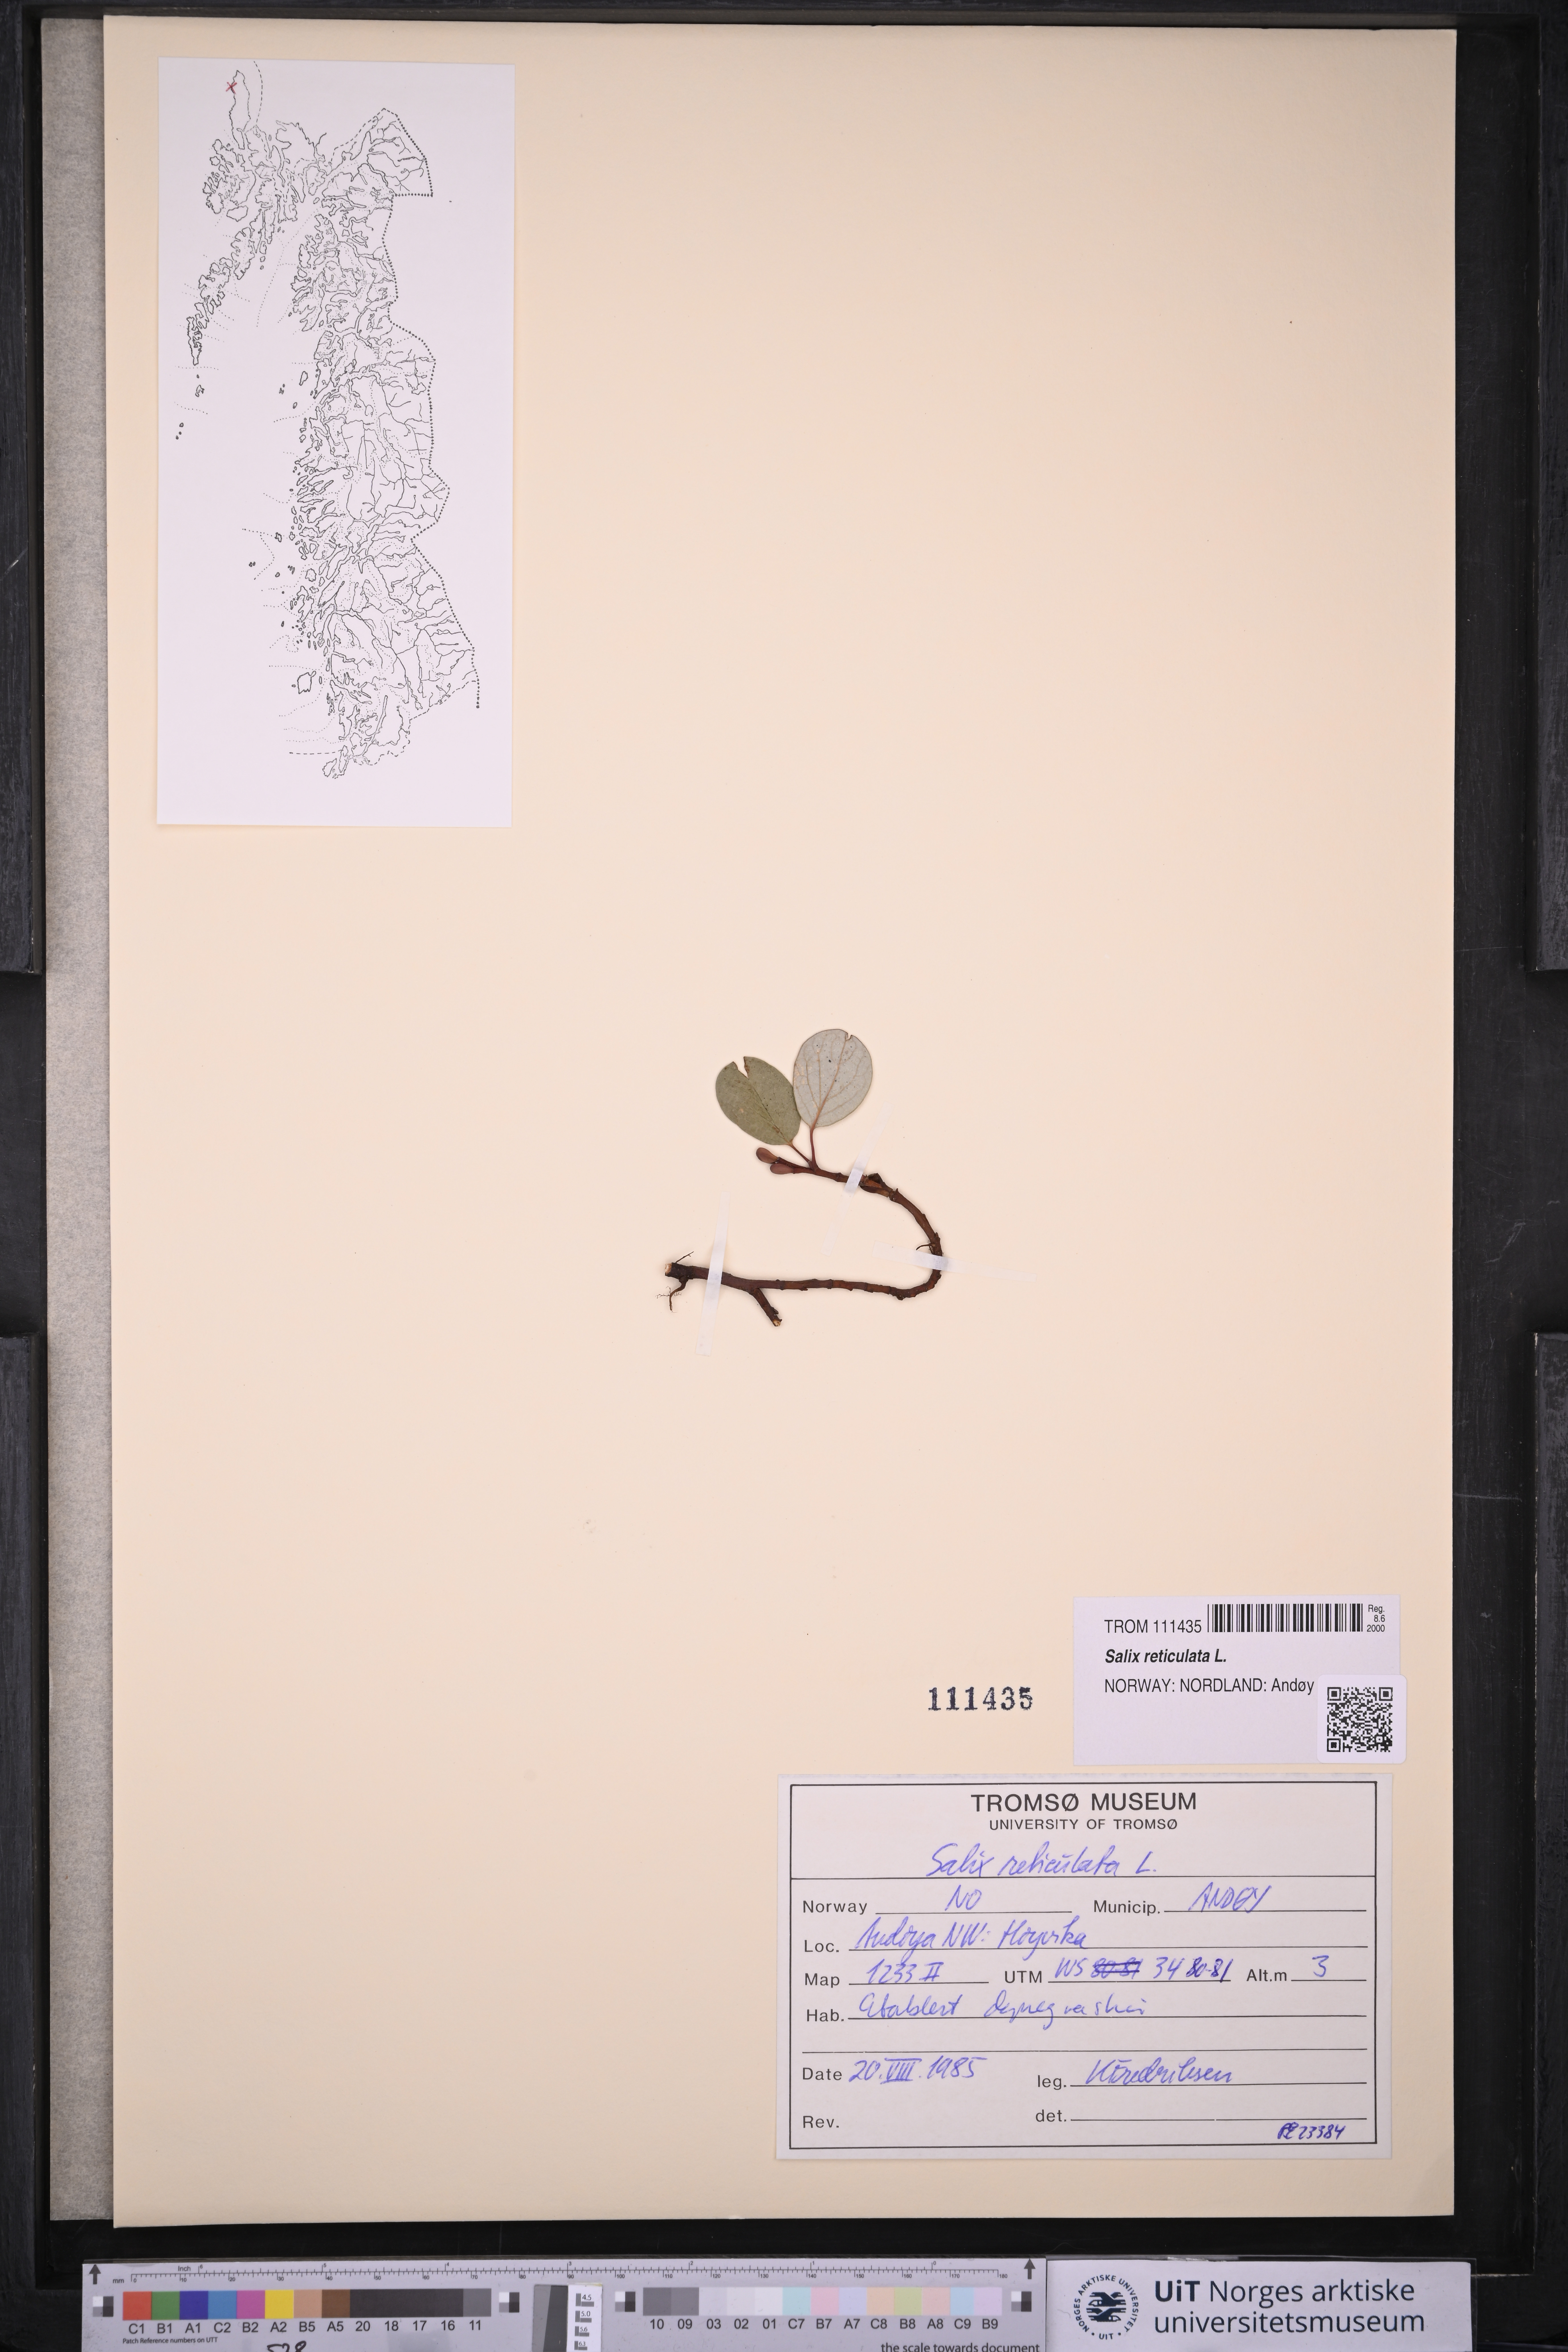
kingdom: Plantae
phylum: Tracheophyta
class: Magnoliopsida
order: Malpighiales
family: Salicaceae
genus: Salix
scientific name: Salix reticulata
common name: Net-leaved willow
